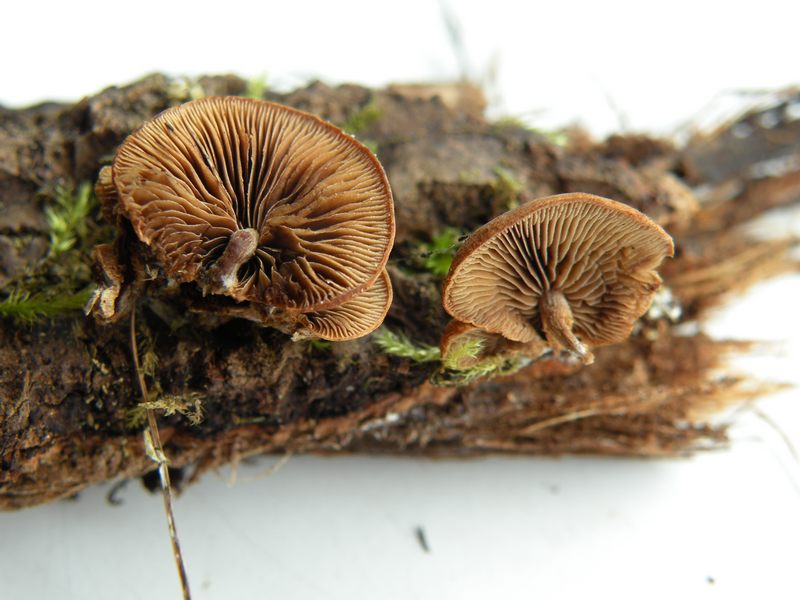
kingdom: Fungi
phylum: Basidiomycota
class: Agaricomycetes
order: Agaricales
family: Strophariaceae
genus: Deconica
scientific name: Deconica horizontalis
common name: ved-stråhat
